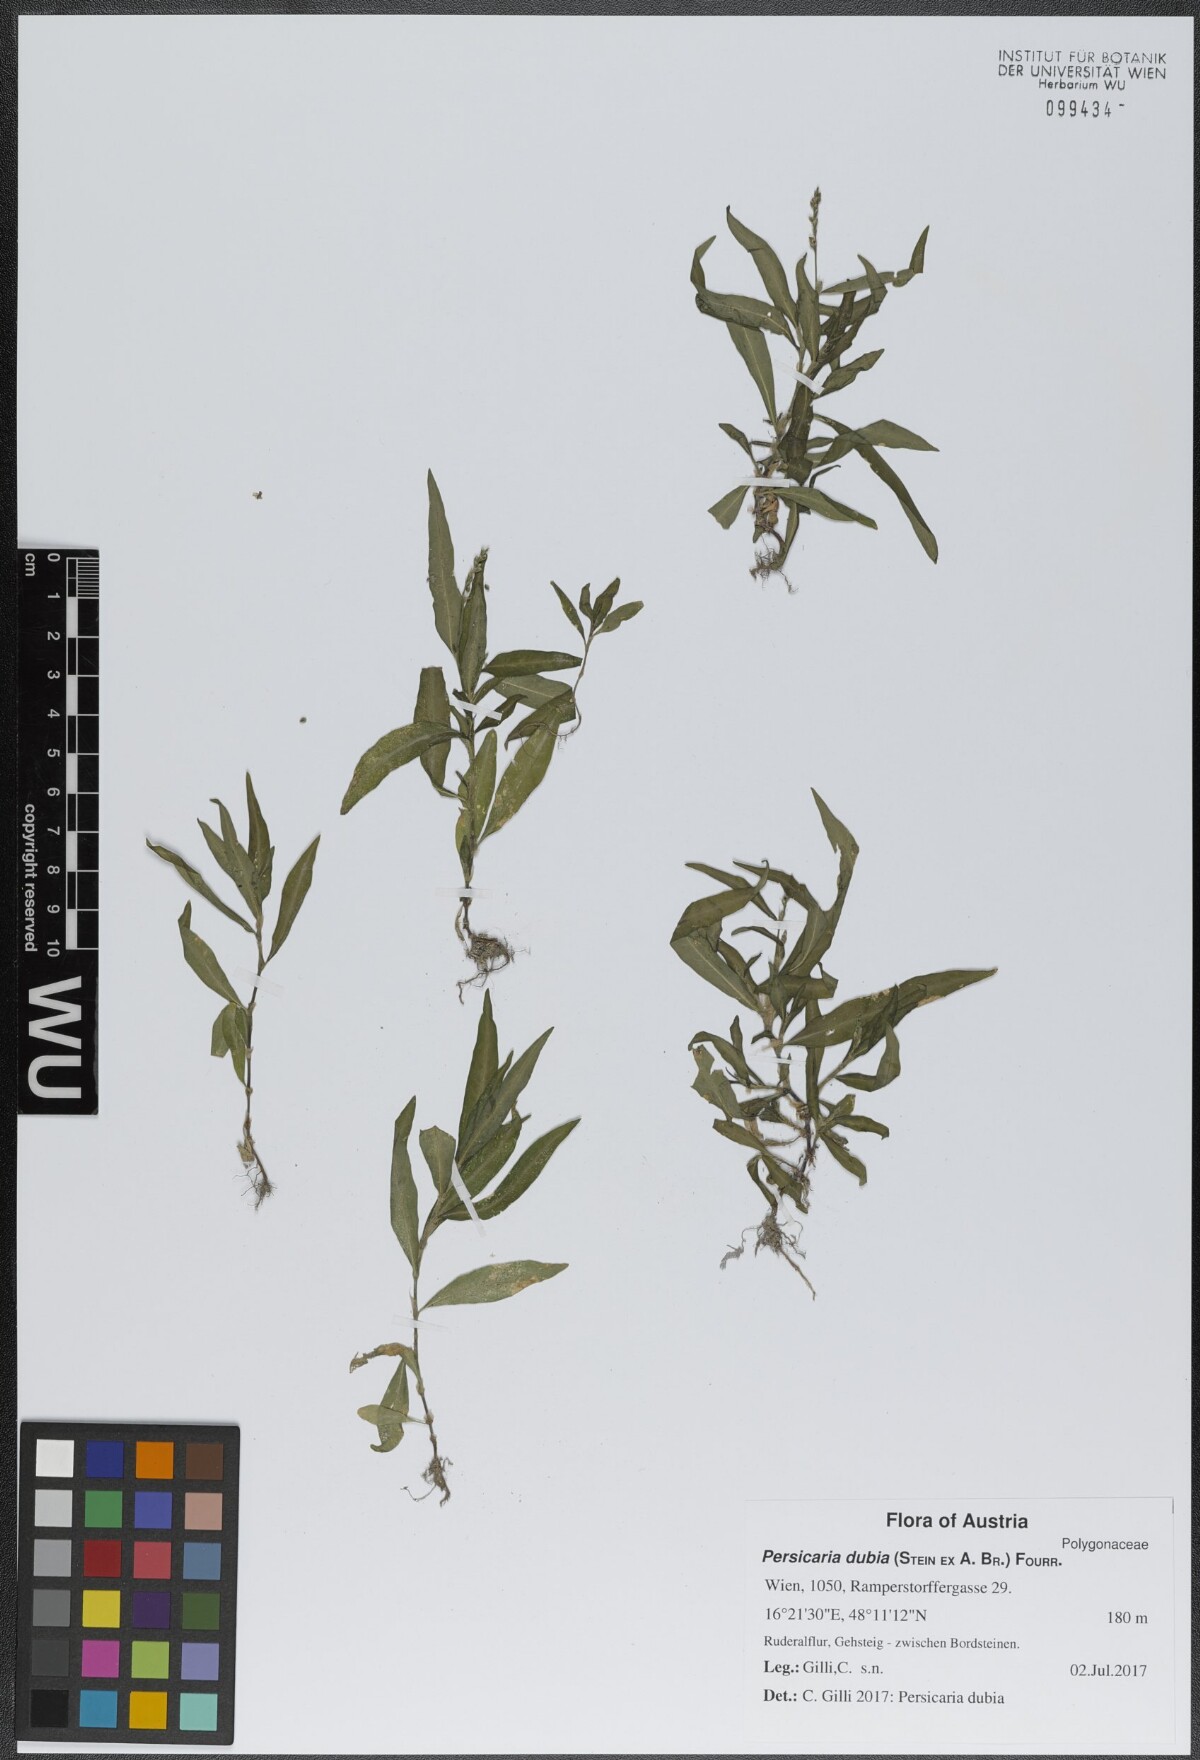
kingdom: Plantae
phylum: Tracheophyta
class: Magnoliopsida
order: Caryophyllales
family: Polygonaceae
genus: Persicaria
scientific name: Persicaria mitis
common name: Tasteless water-pepper
